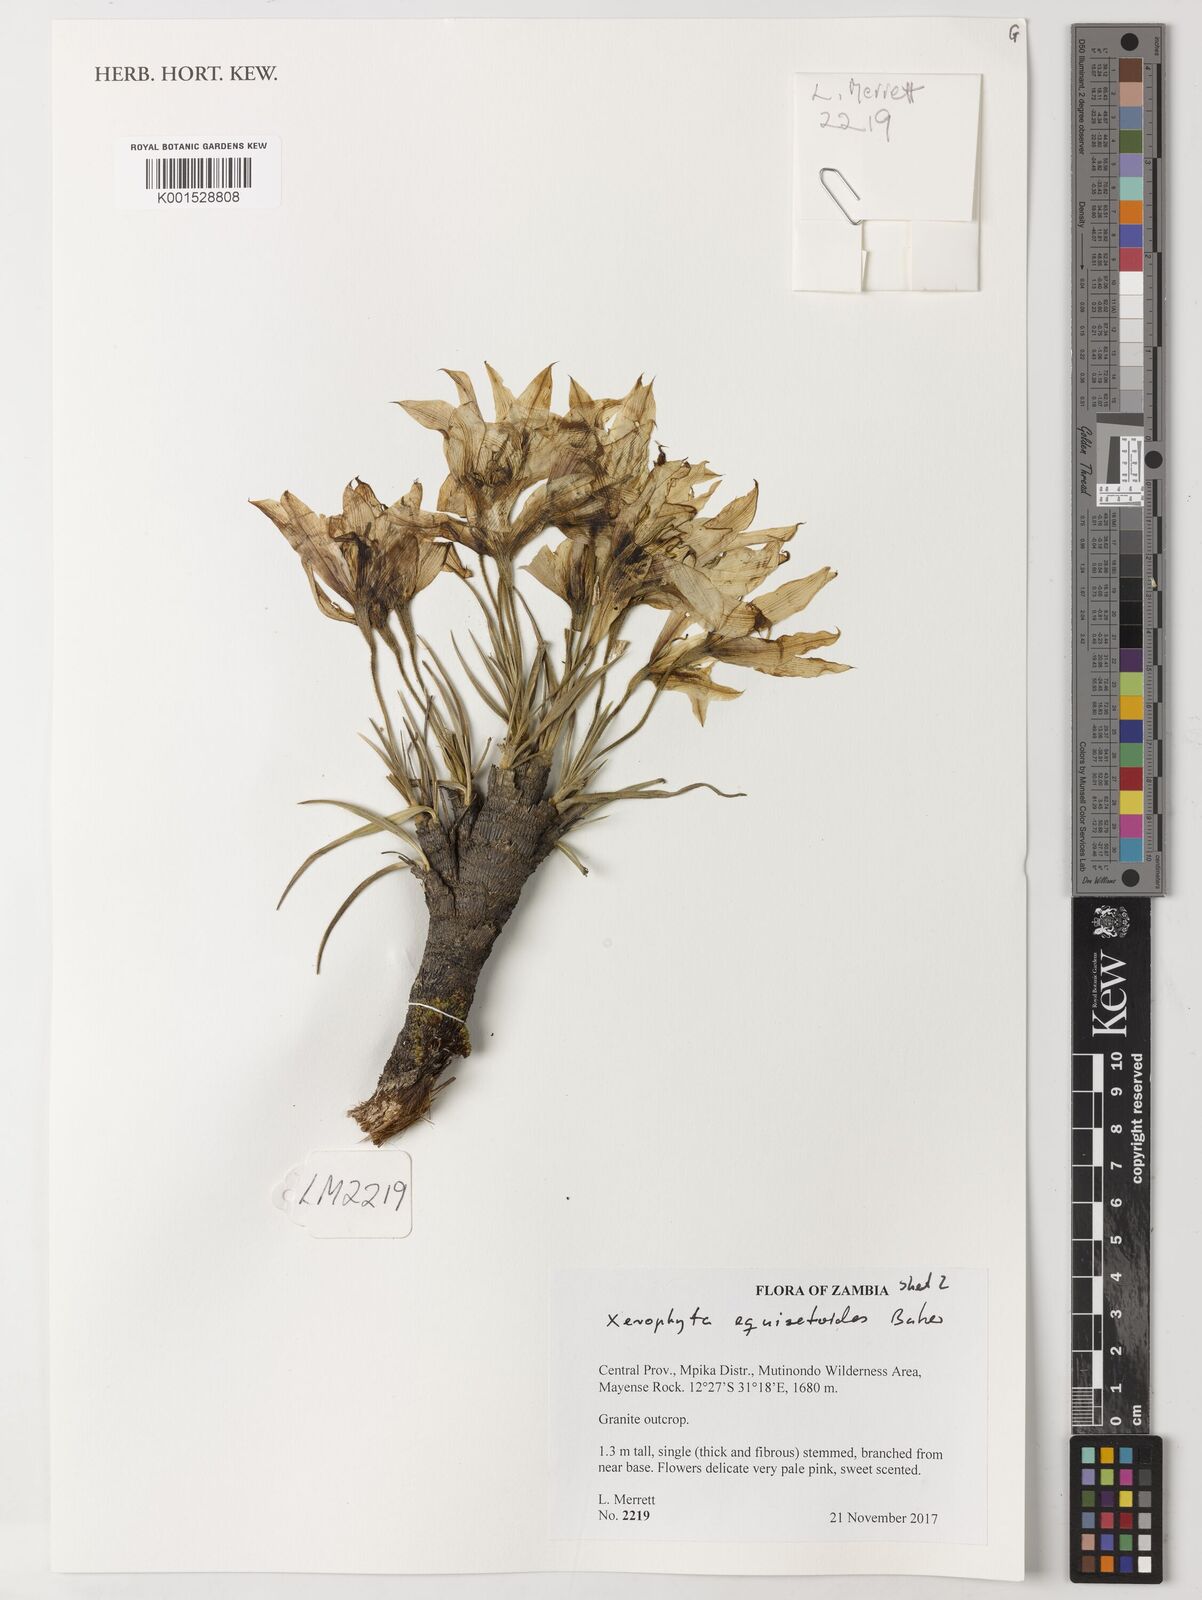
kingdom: Plantae
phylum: Tracheophyta
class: Liliopsida
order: Pandanales
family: Velloziaceae
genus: Xerophyta
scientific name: Xerophyta trichophylla
